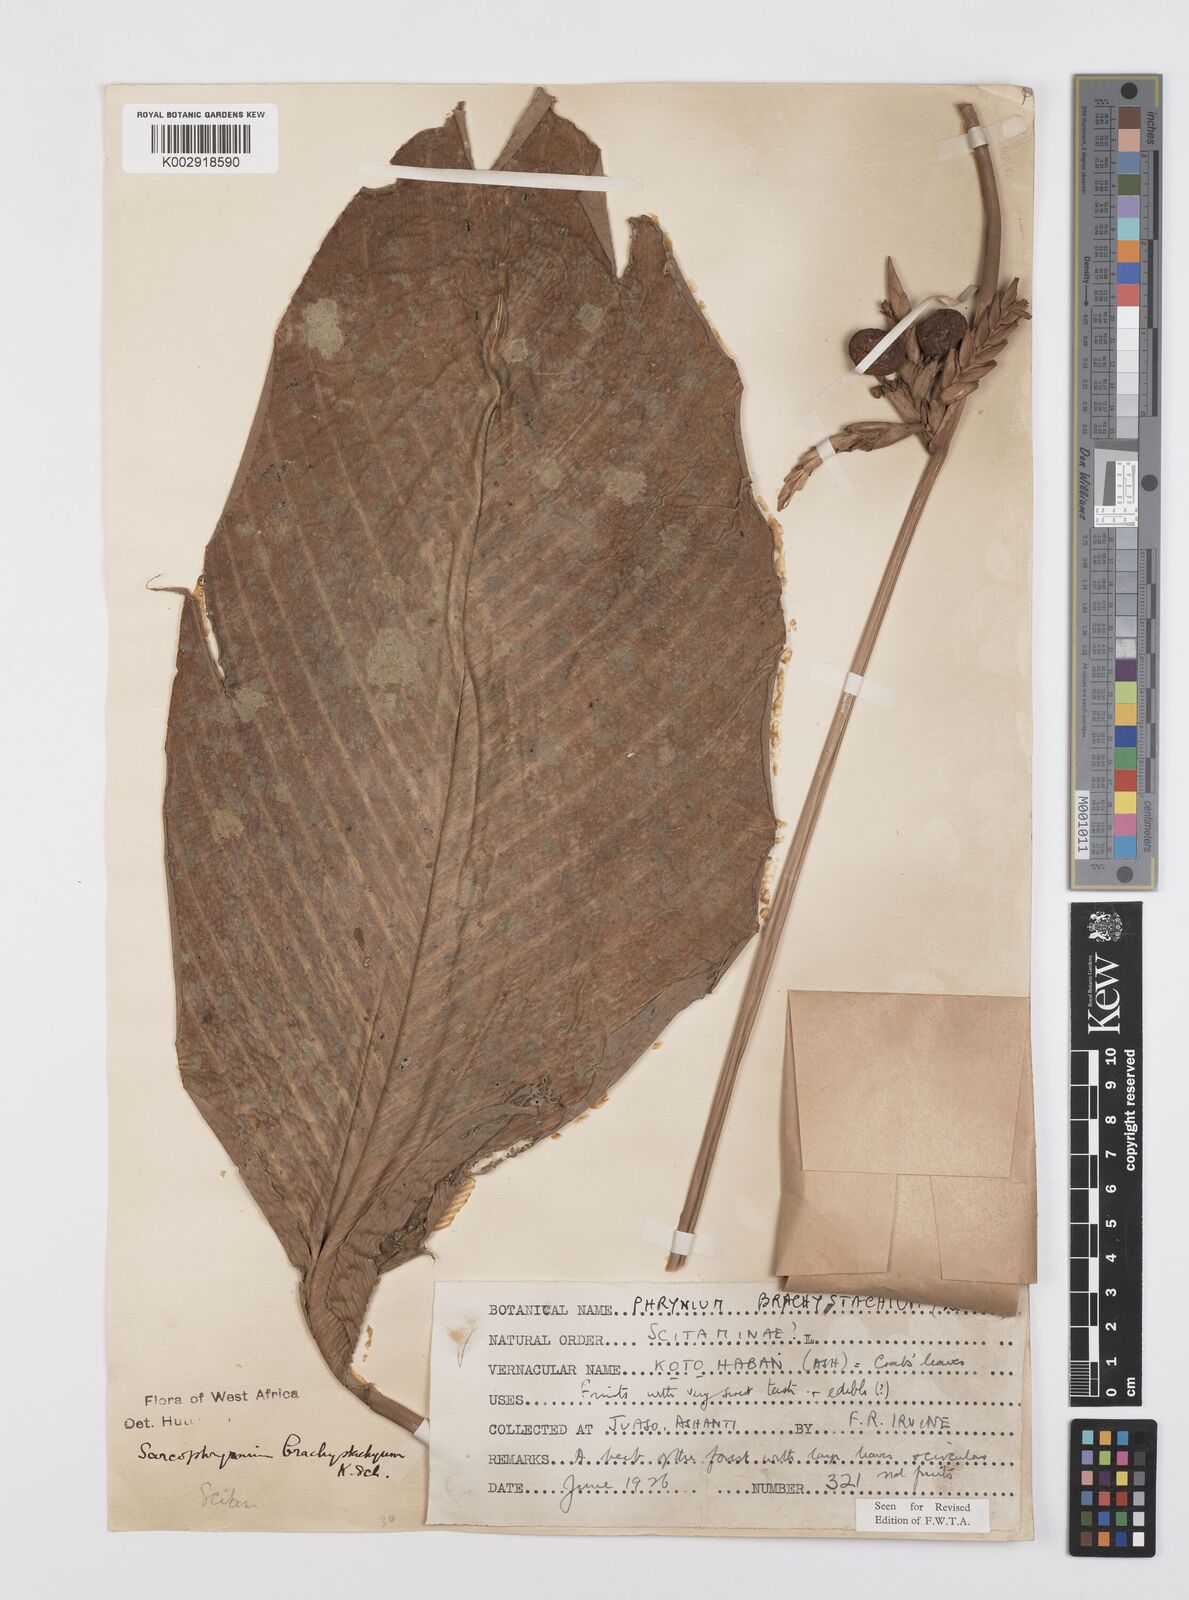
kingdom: Plantae
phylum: Tracheophyta
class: Liliopsida
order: Zingiberales
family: Marantaceae
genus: Sarcophrynium
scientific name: Sarcophrynium brachystachyum
